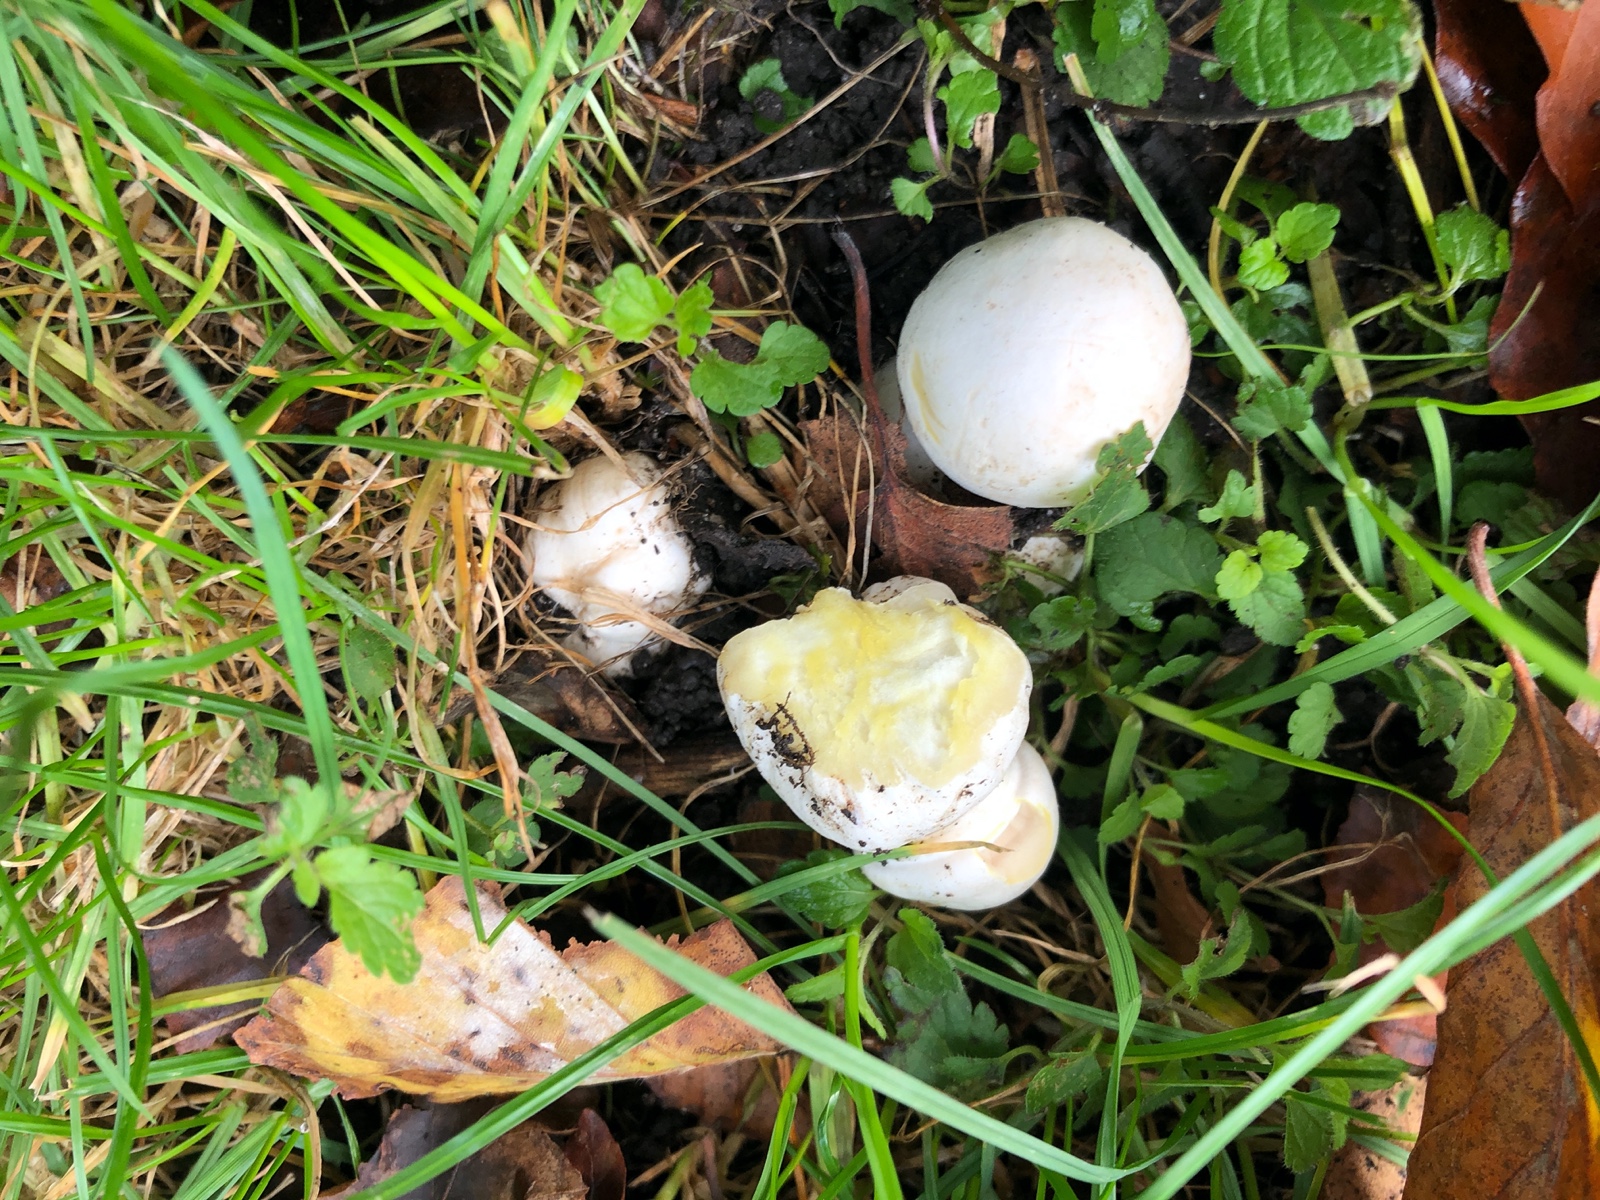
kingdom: Fungi
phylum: Basidiomycota
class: Agaricomycetes
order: Agaricales
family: Agaricaceae
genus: Agaricus
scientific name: Agaricus xanthodermus
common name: karbol-champignon
